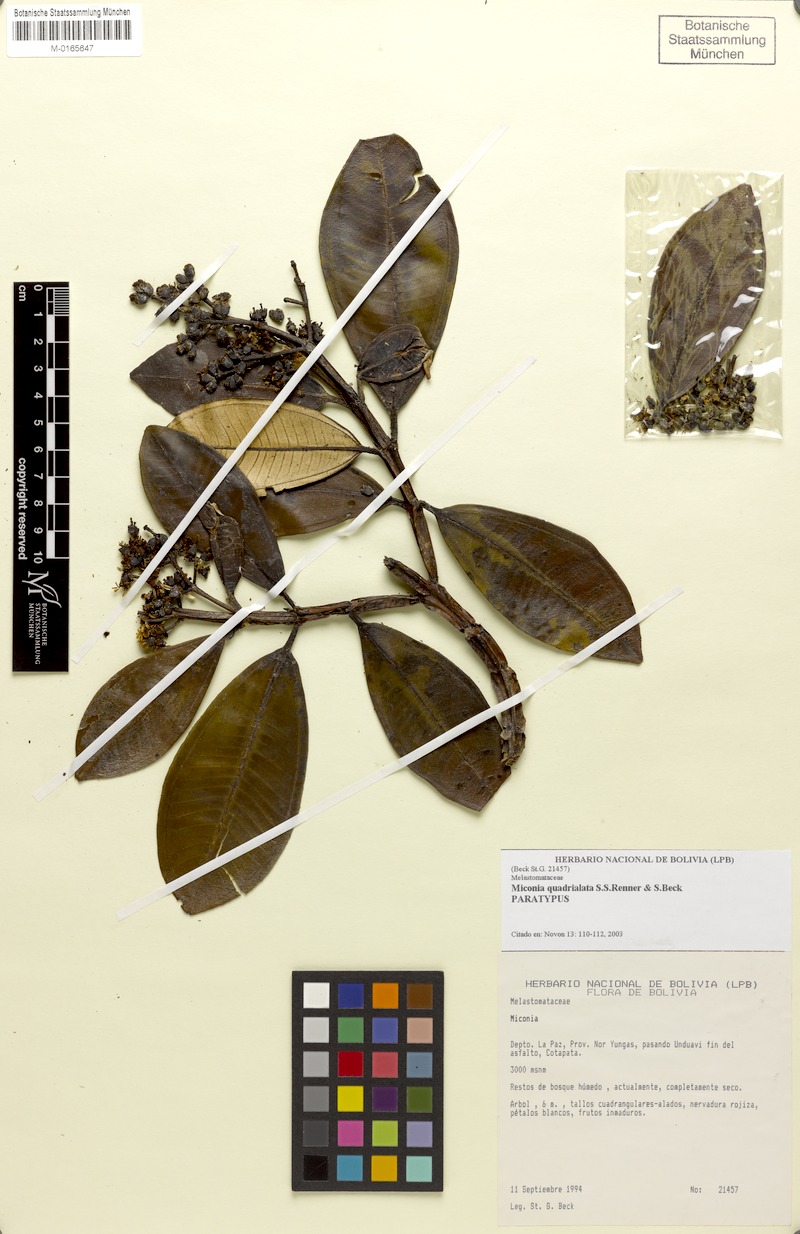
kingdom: Plantae
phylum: Tracheophyta
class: Magnoliopsida
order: Myrtales
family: Melastomataceae
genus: Miconia
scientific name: Miconia quadrialata
